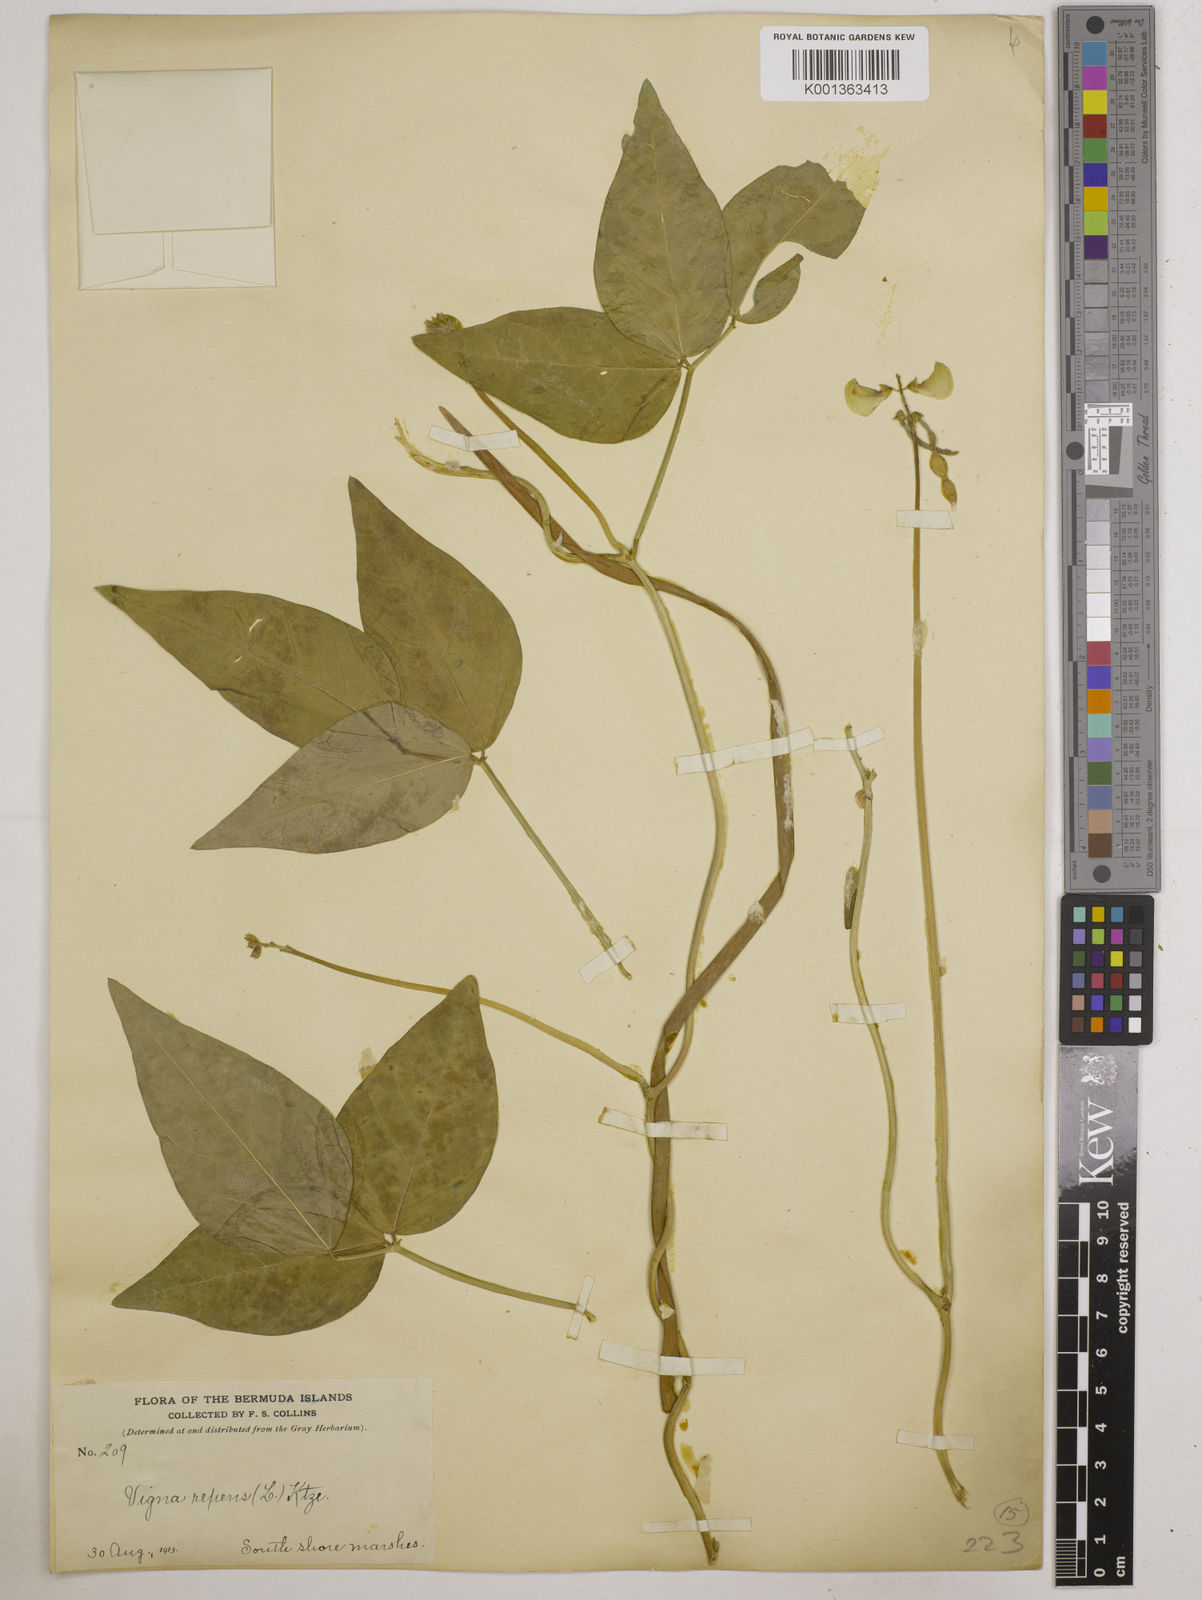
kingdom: Plantae
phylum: Tracheophyta
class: Magnoliopsida
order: Fabales
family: Fabaceae
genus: Vigna
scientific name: Vigna luteola
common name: Hairypod cowpea
